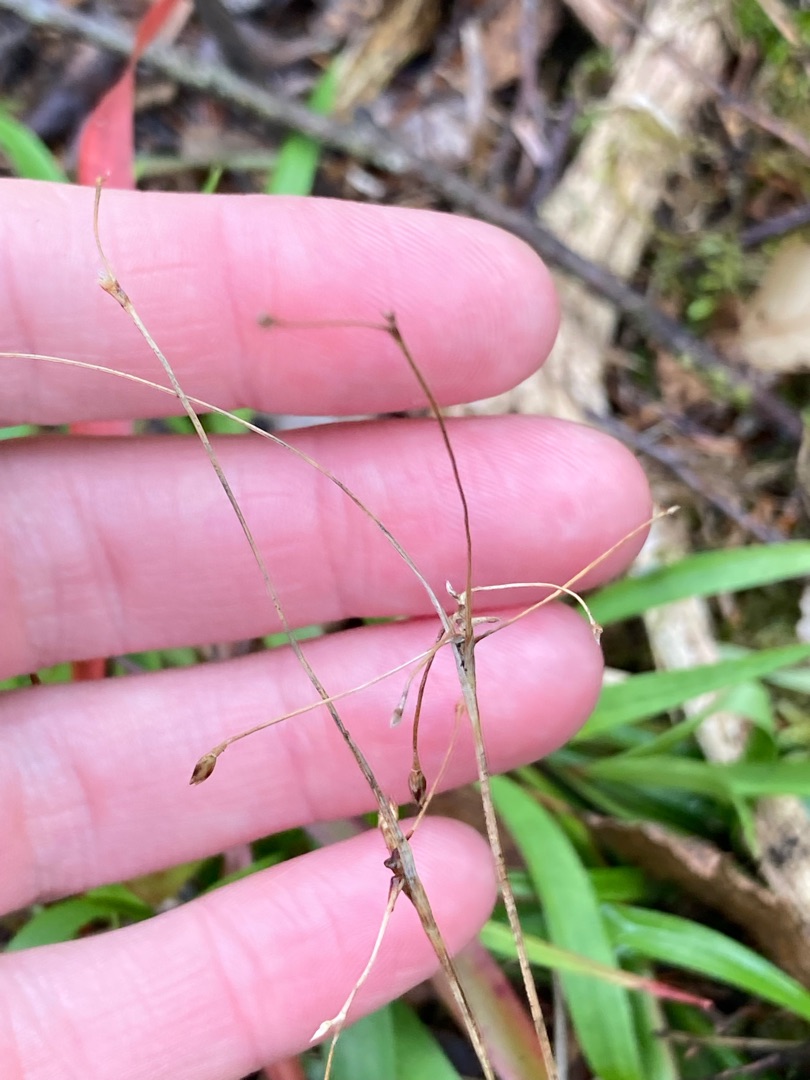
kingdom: Plantae
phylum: Tracheophyta
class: Liliopsida
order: Poales
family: Juncaceae
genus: Luzula
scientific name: Luzula pilosa
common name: Håret frytle
